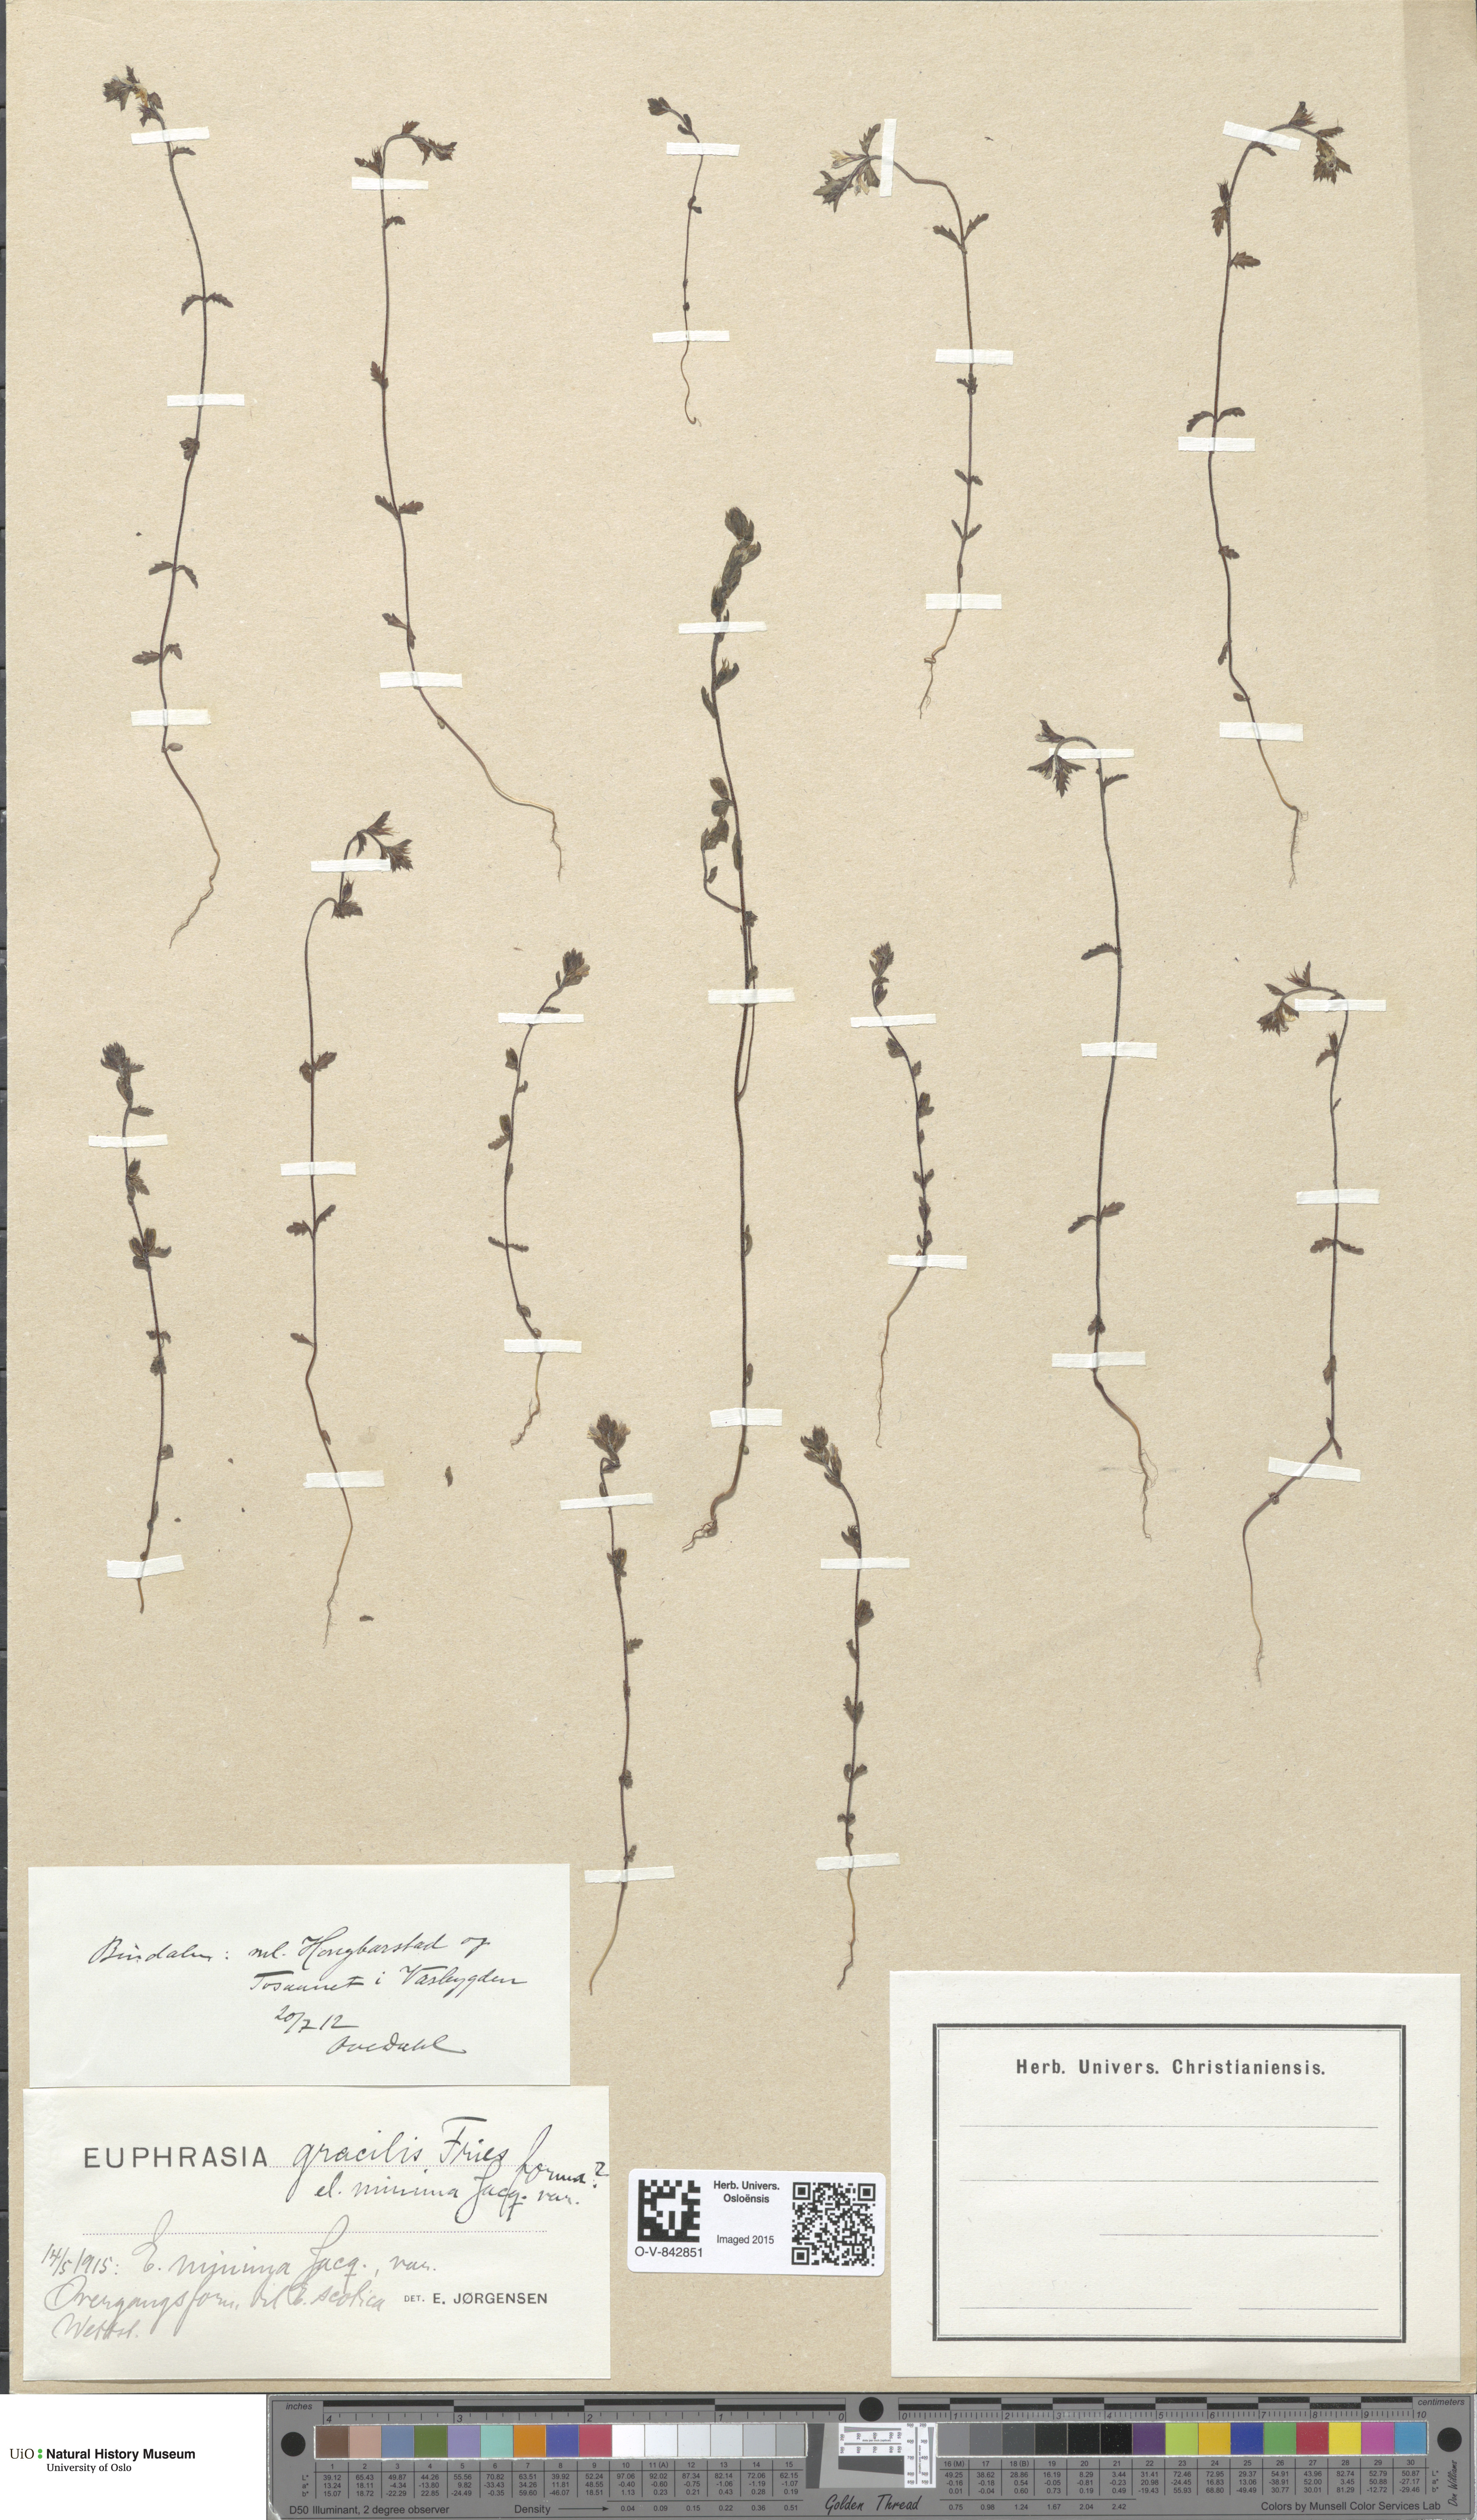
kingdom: Plantae
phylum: Tracheophyta
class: Magnoliopsida
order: Lamiales
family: Orobanchaceae
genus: Euphrasia
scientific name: Euphrasia wettsteinii
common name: Wettstein's eyebright
